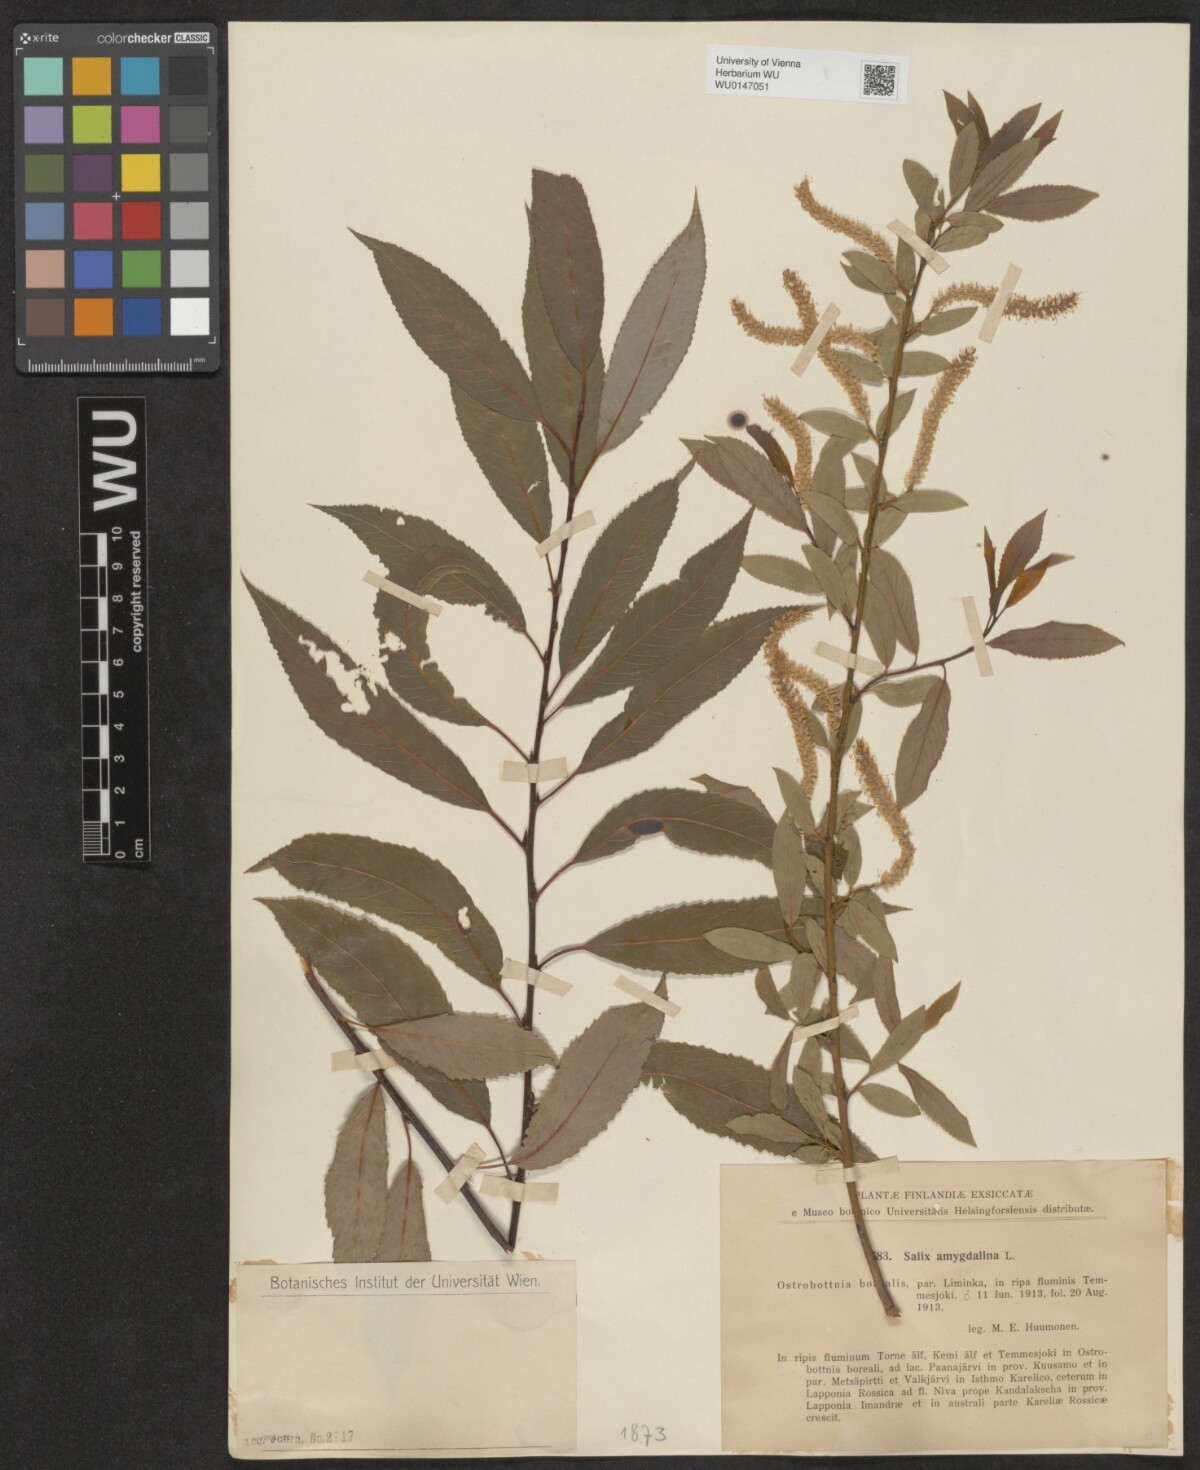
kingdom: Plantae
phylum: Tracheophyta
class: Magnoliopsida
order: Malpighiales
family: Salicaceae
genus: Salix
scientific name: Salix triandra
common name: Almond willow
